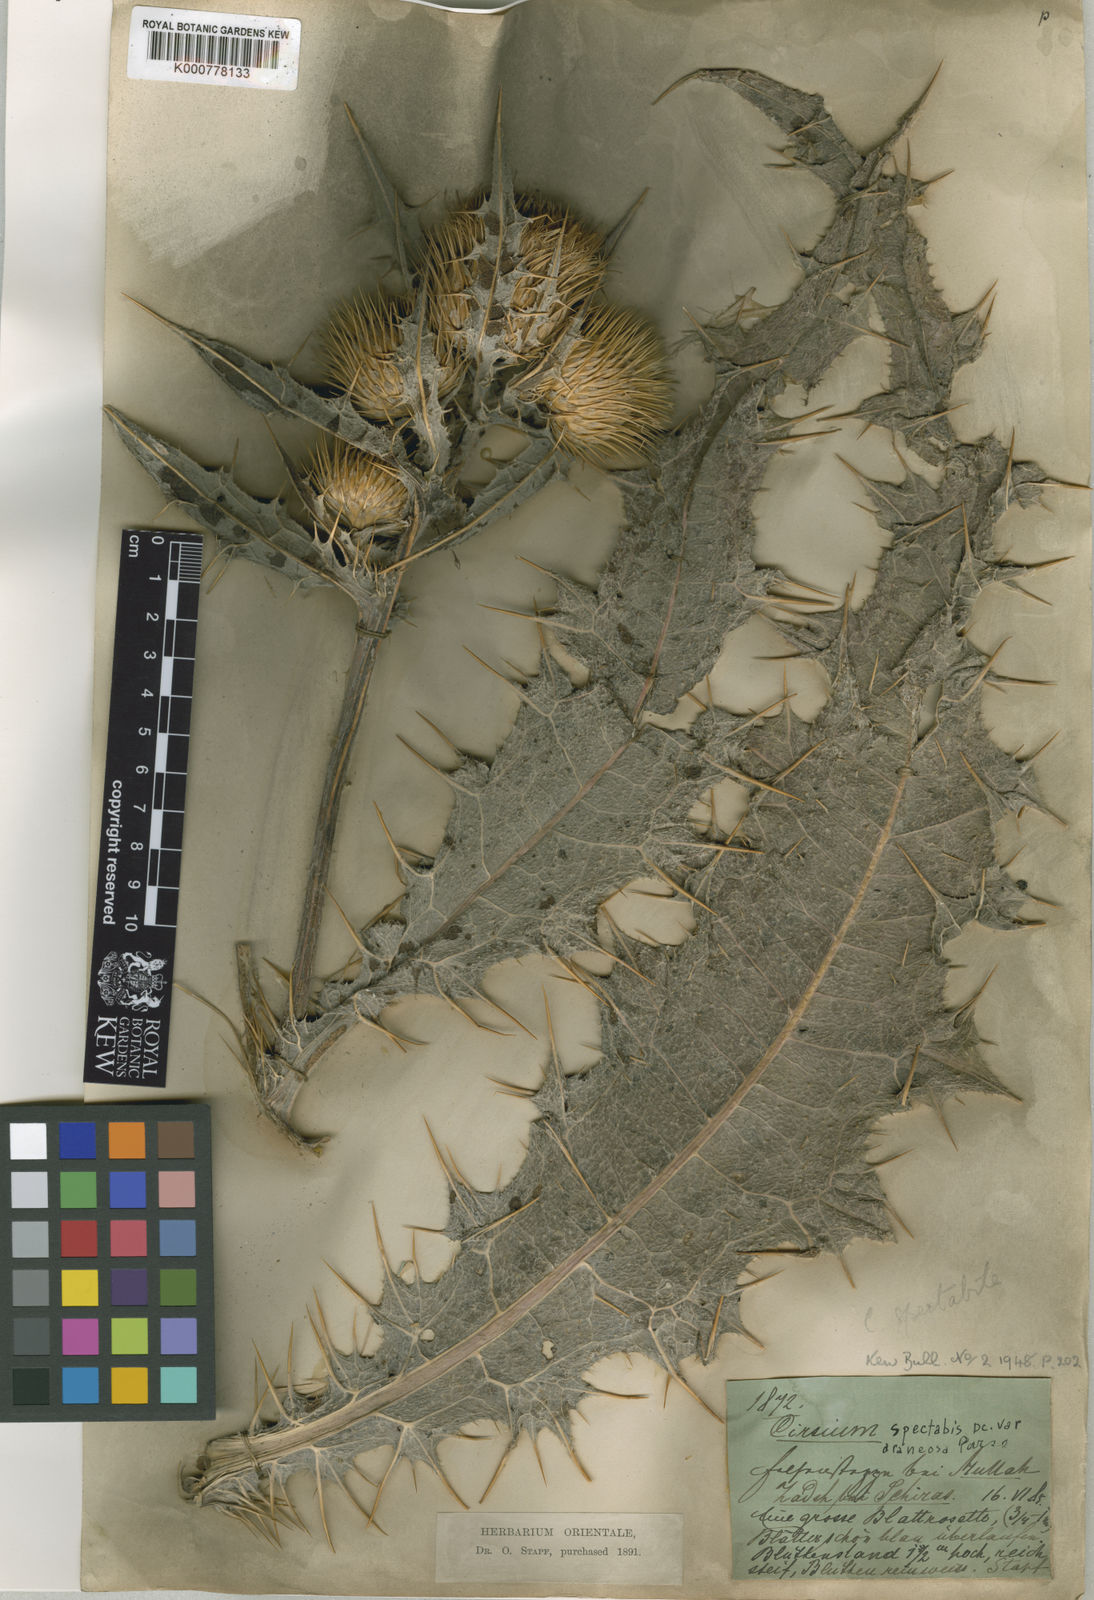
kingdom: Plantae
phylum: Tracheophyta
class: Magnoliopsida
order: Asterales
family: Asteraceae
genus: Cirsium
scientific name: Cirsium
